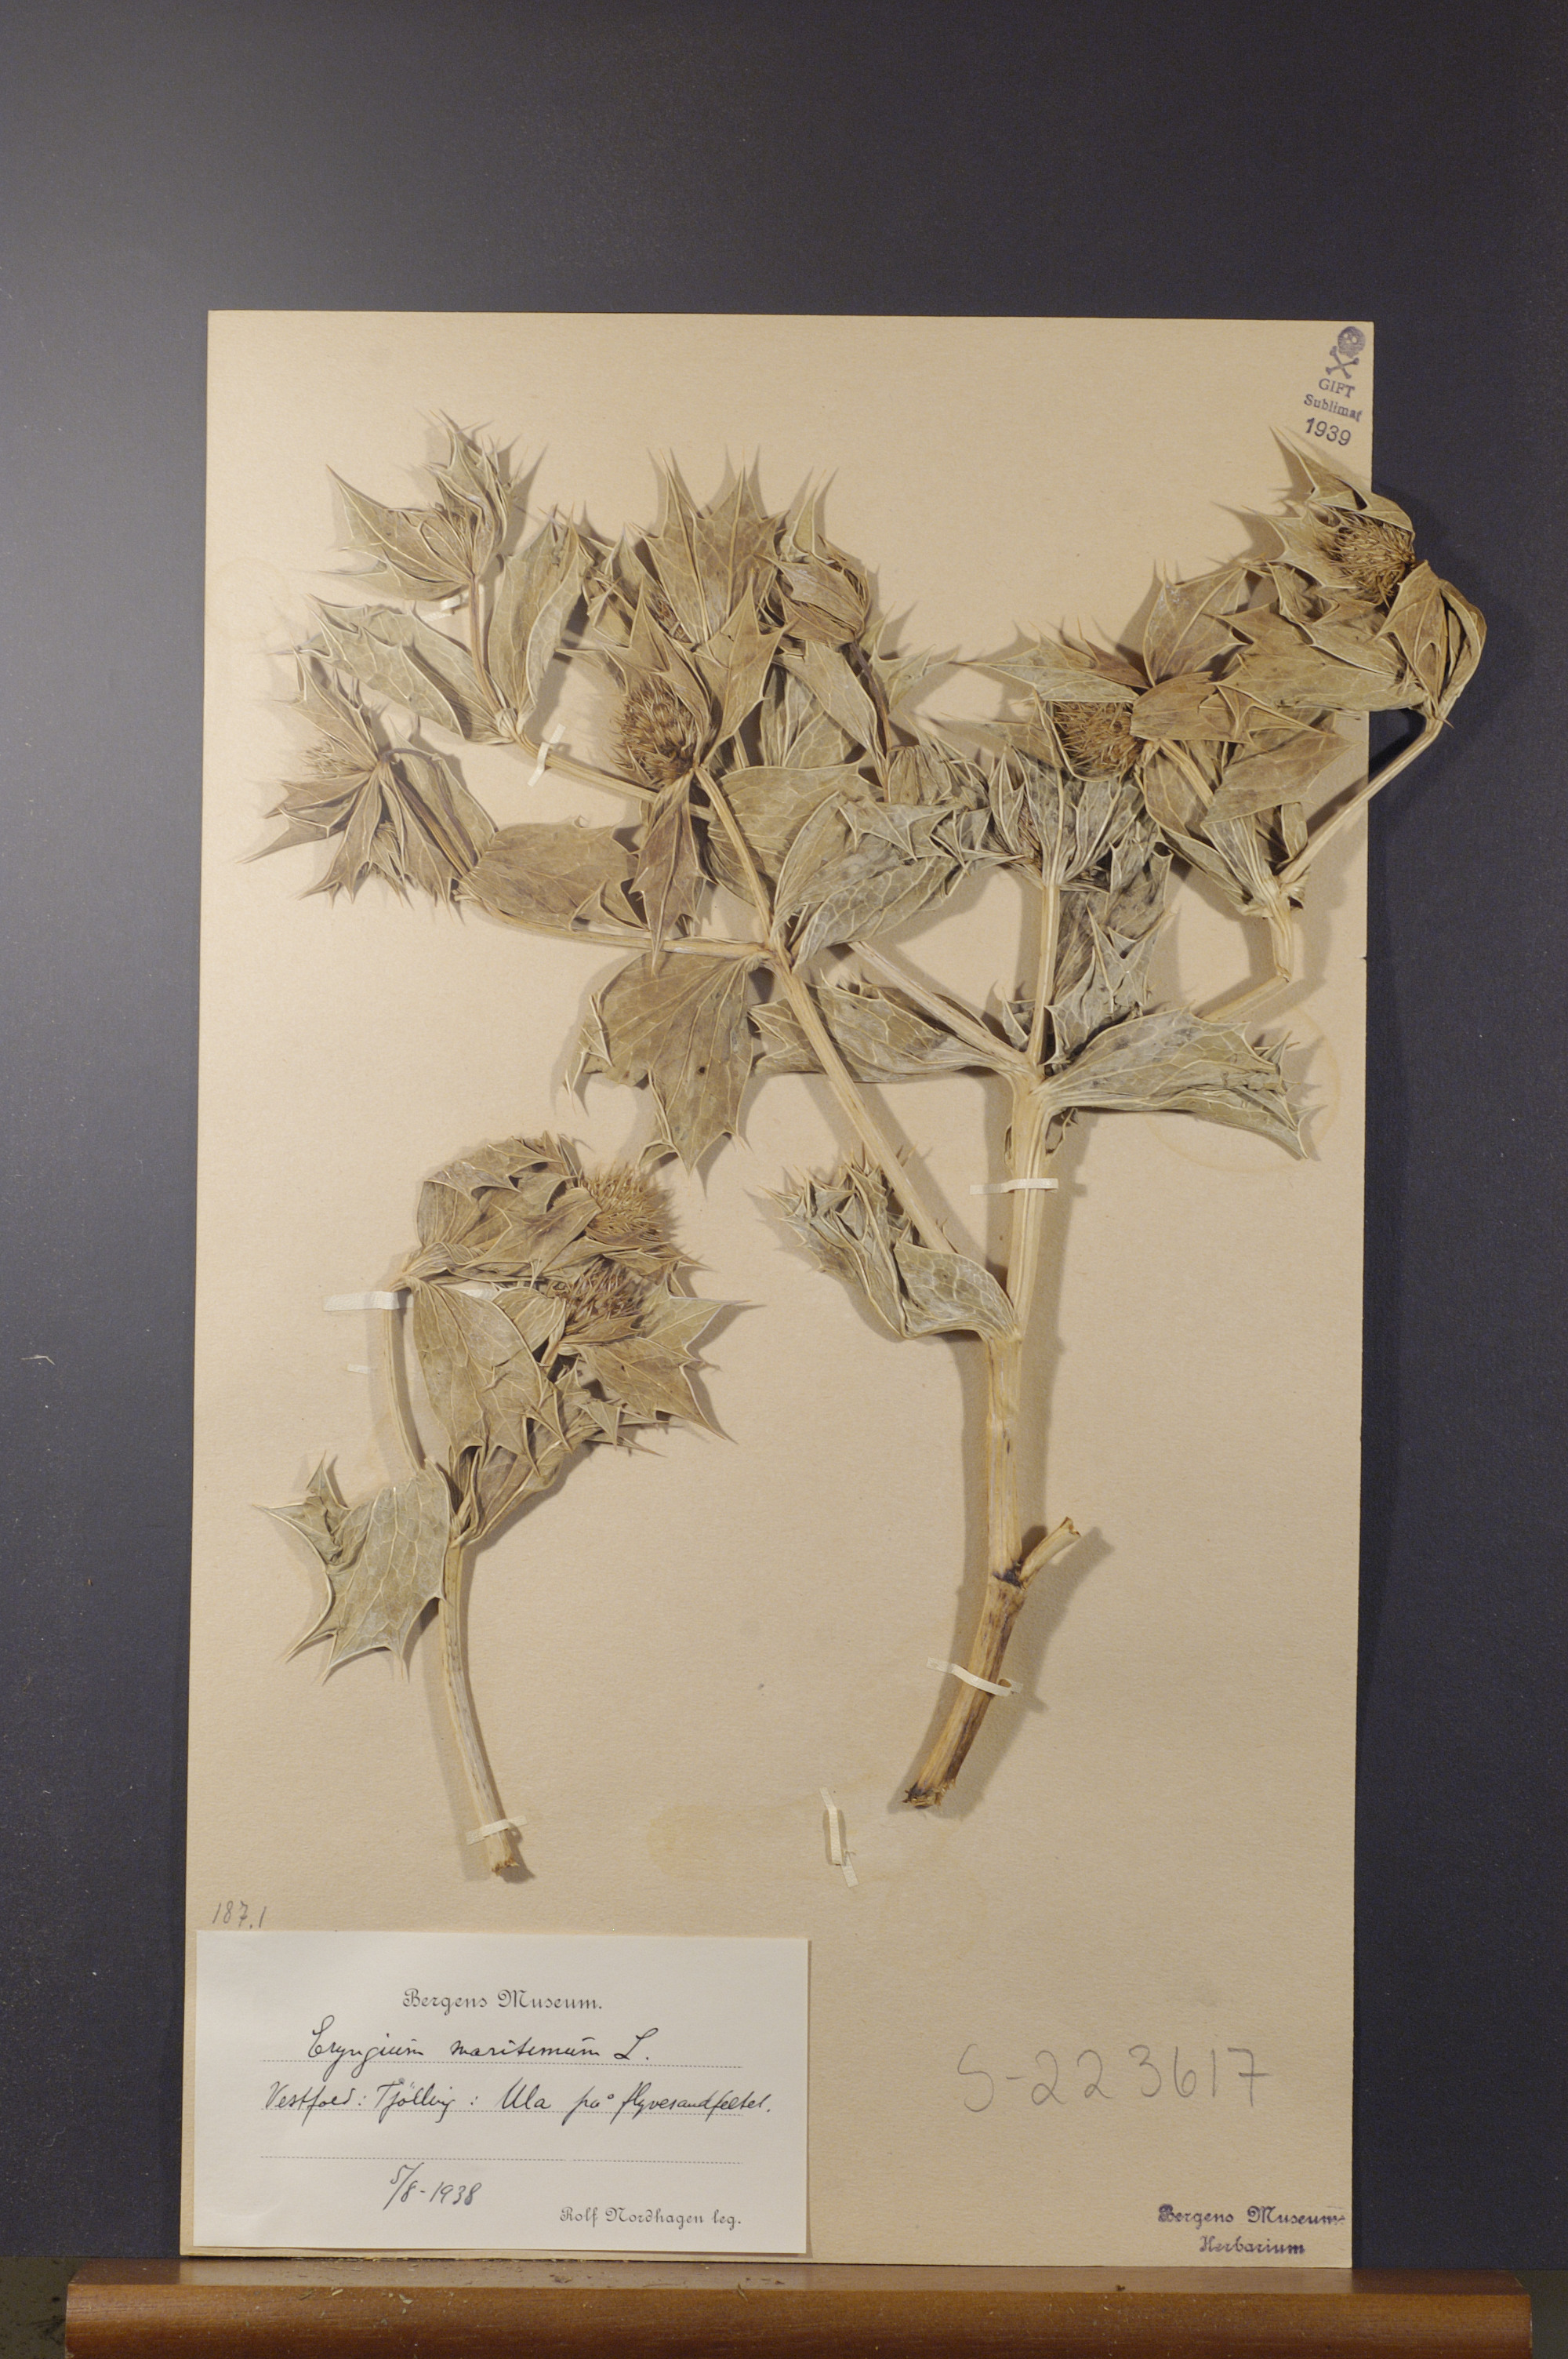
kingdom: Plantae
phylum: Tracheophyta
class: Magnoliopsida
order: Apiales
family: Apiaceae
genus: Eryngium
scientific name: Eryngium maritimum
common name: Sea-holly
